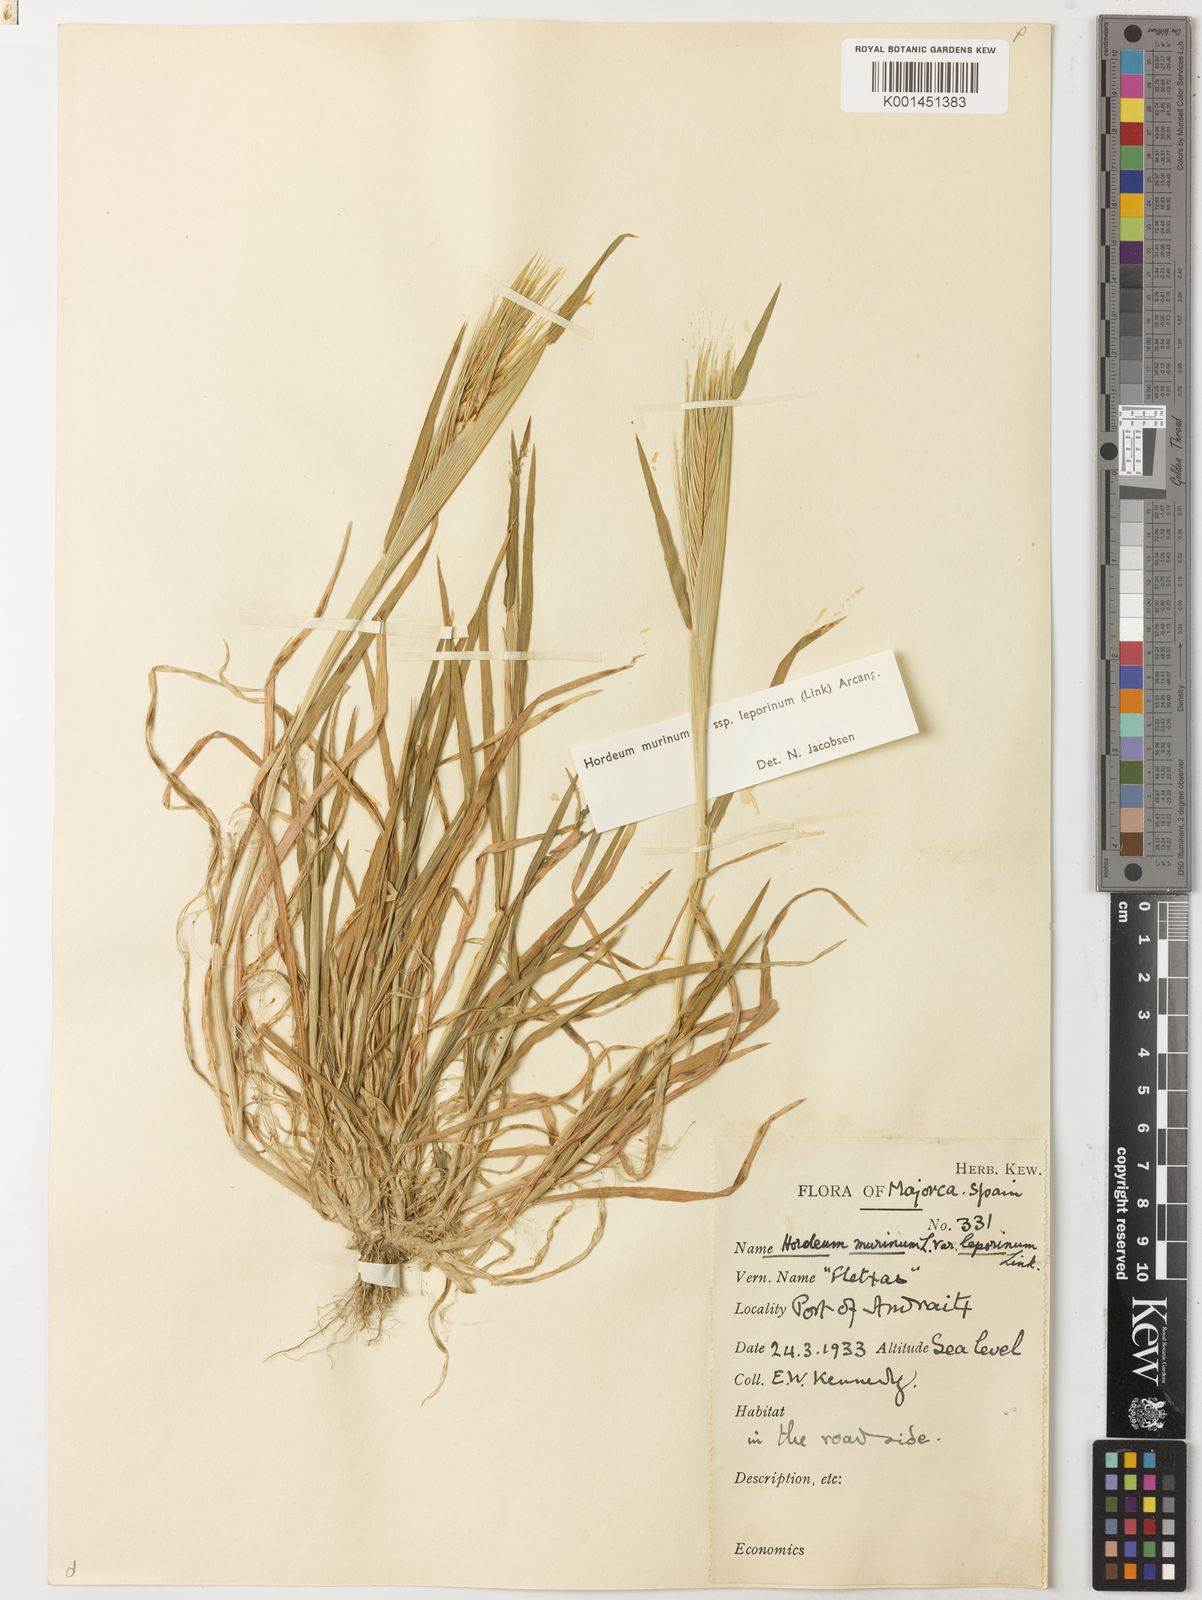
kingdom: Plantae
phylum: Tracheophyta
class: Liliopsida
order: Poales
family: Poaceae
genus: Hordeum
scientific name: Hordeum murinum
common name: Wall barley
